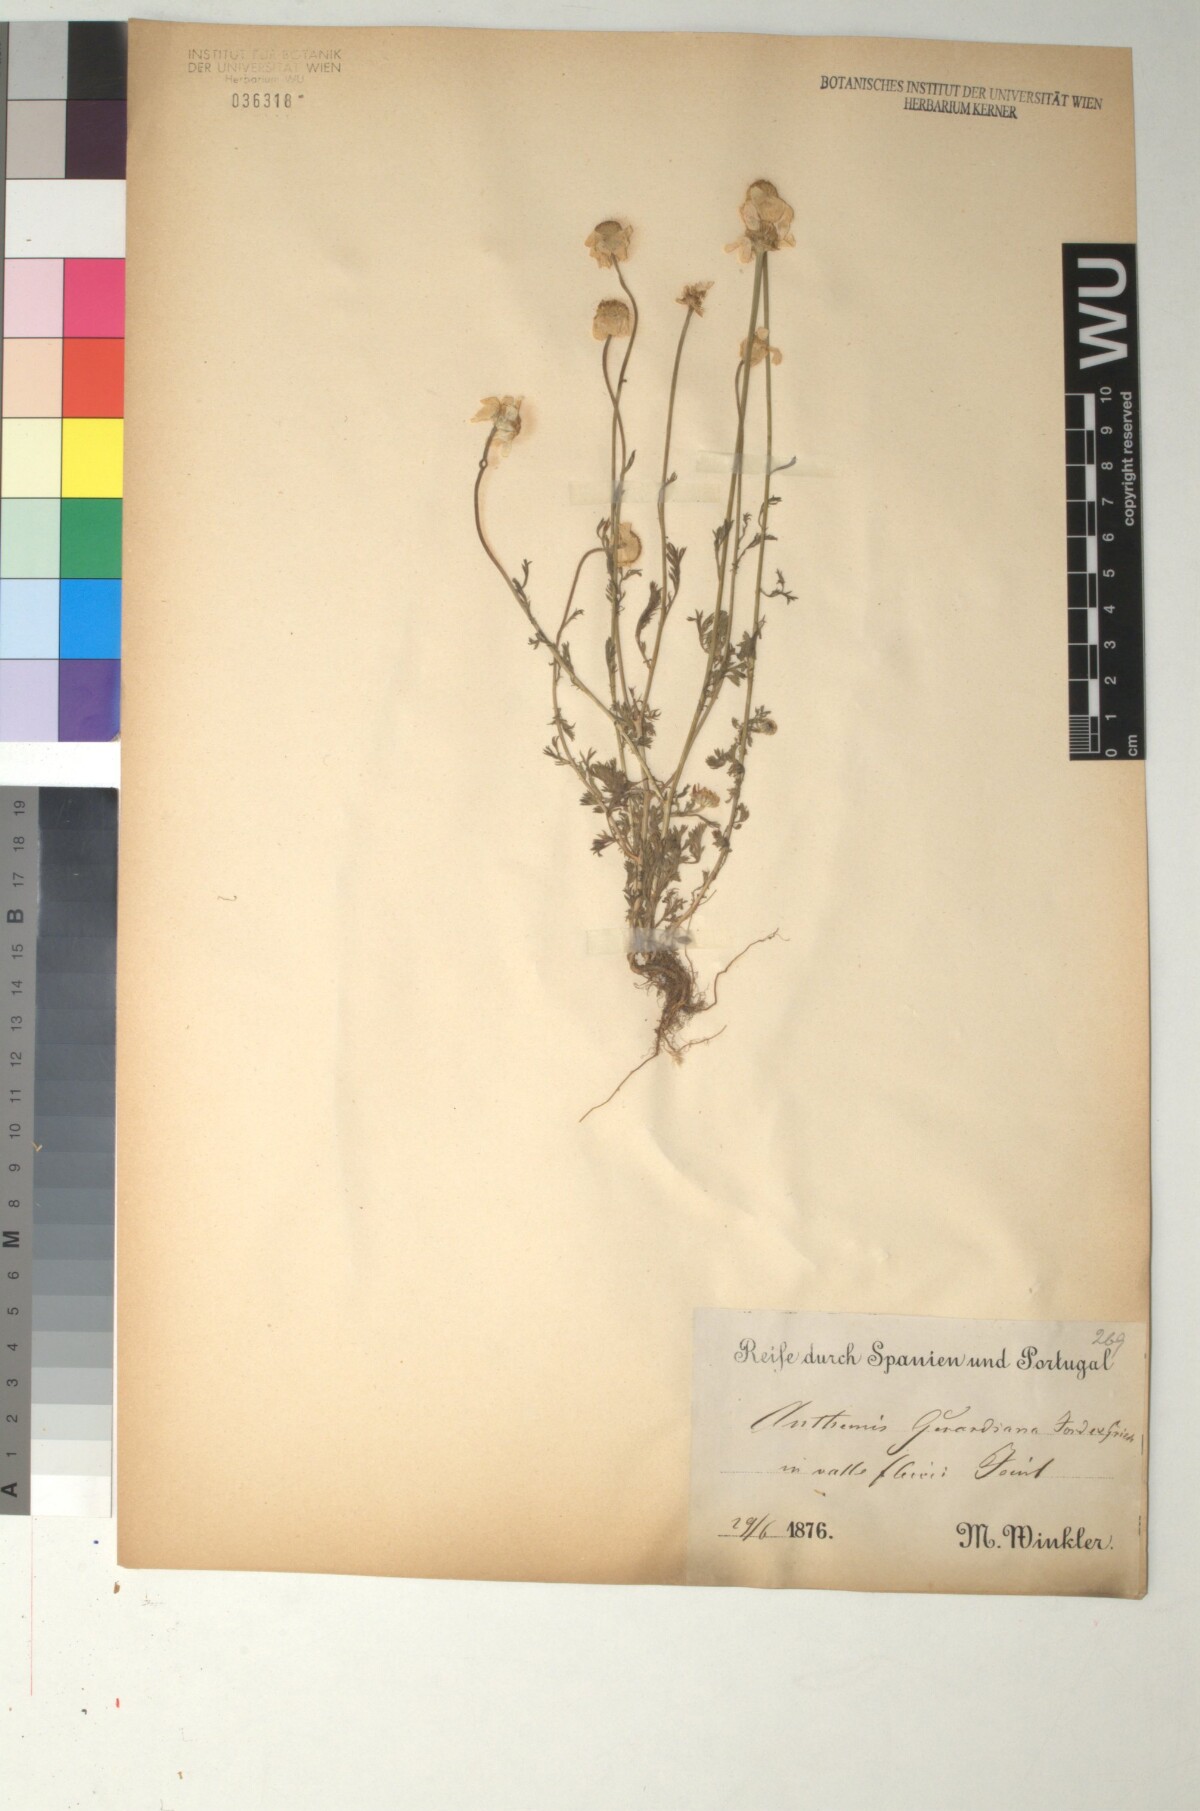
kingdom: Plantae
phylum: Tracheophyta
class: Magnoliopsida
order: Asterales
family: Asteraceae
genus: Anthemis
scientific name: Anthemis cretica
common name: Mountain dog-daisy
